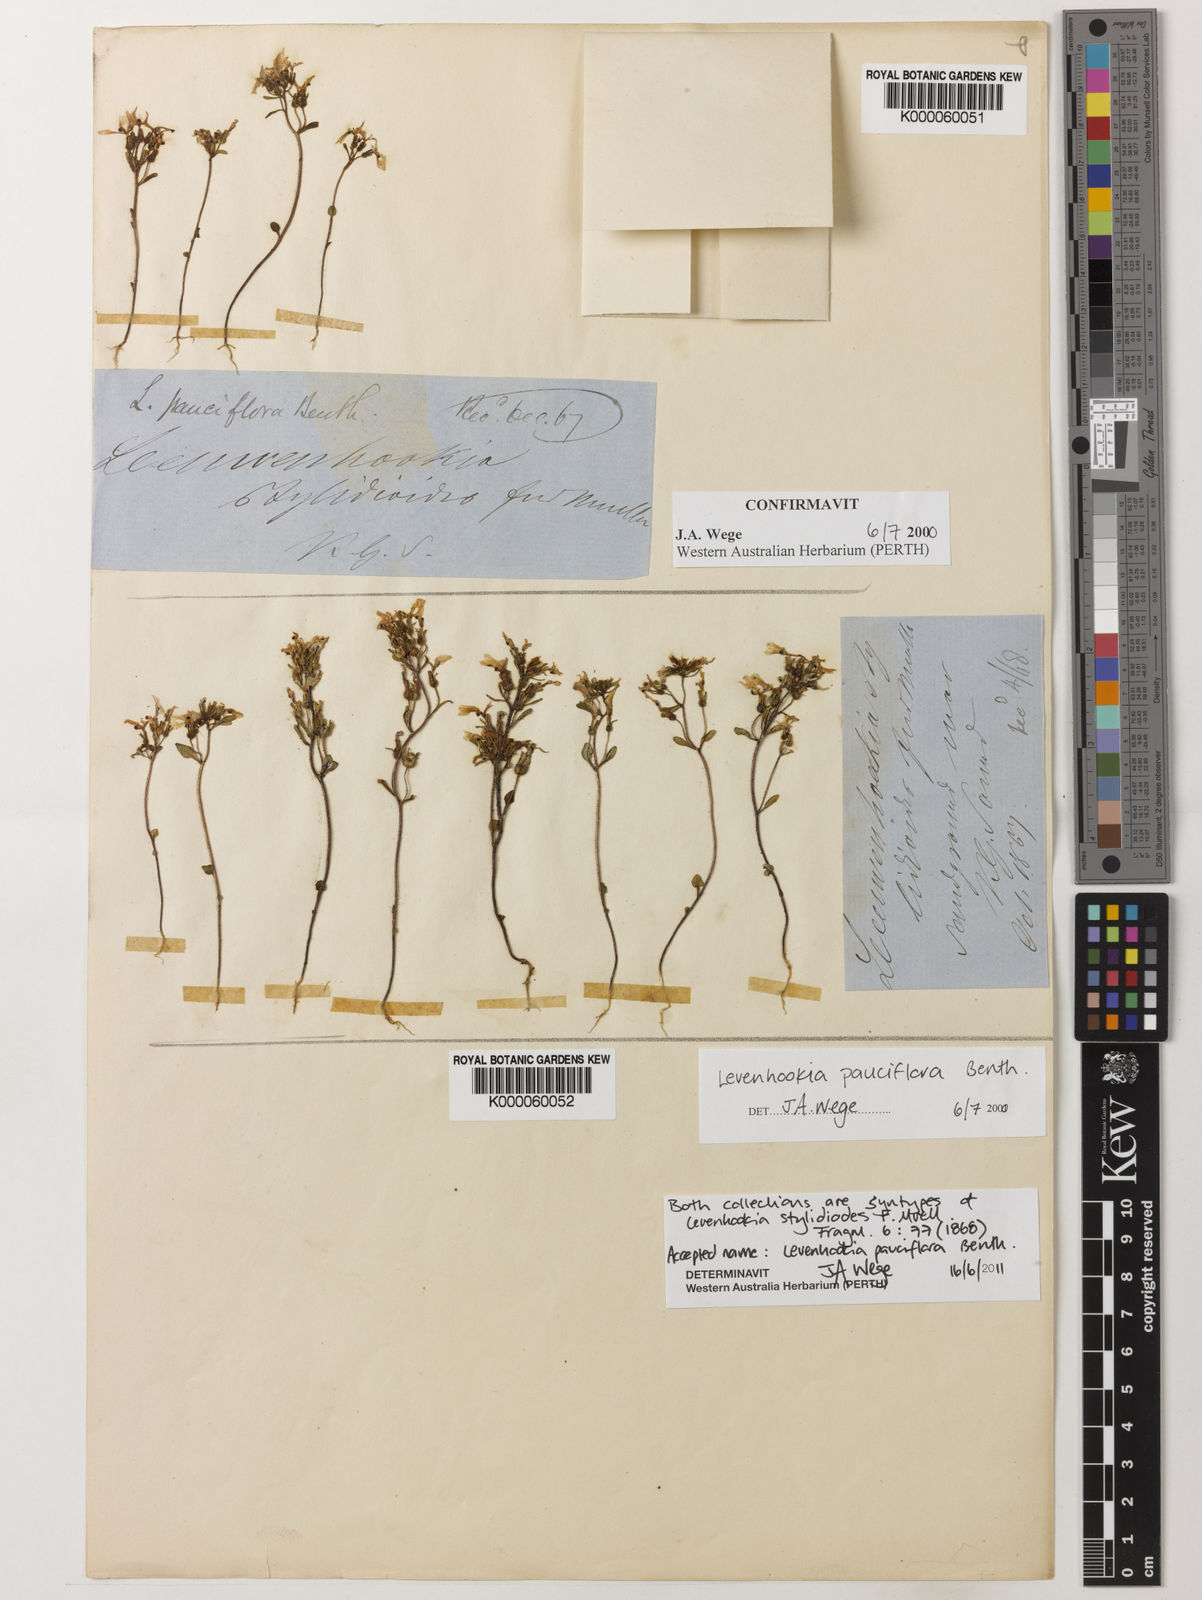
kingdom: Plantae
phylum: Tracheophyta
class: Magnoliopsida
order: Asterales
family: Stylidiaceae
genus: Levenhookia
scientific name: Levenhookia pauciflora
